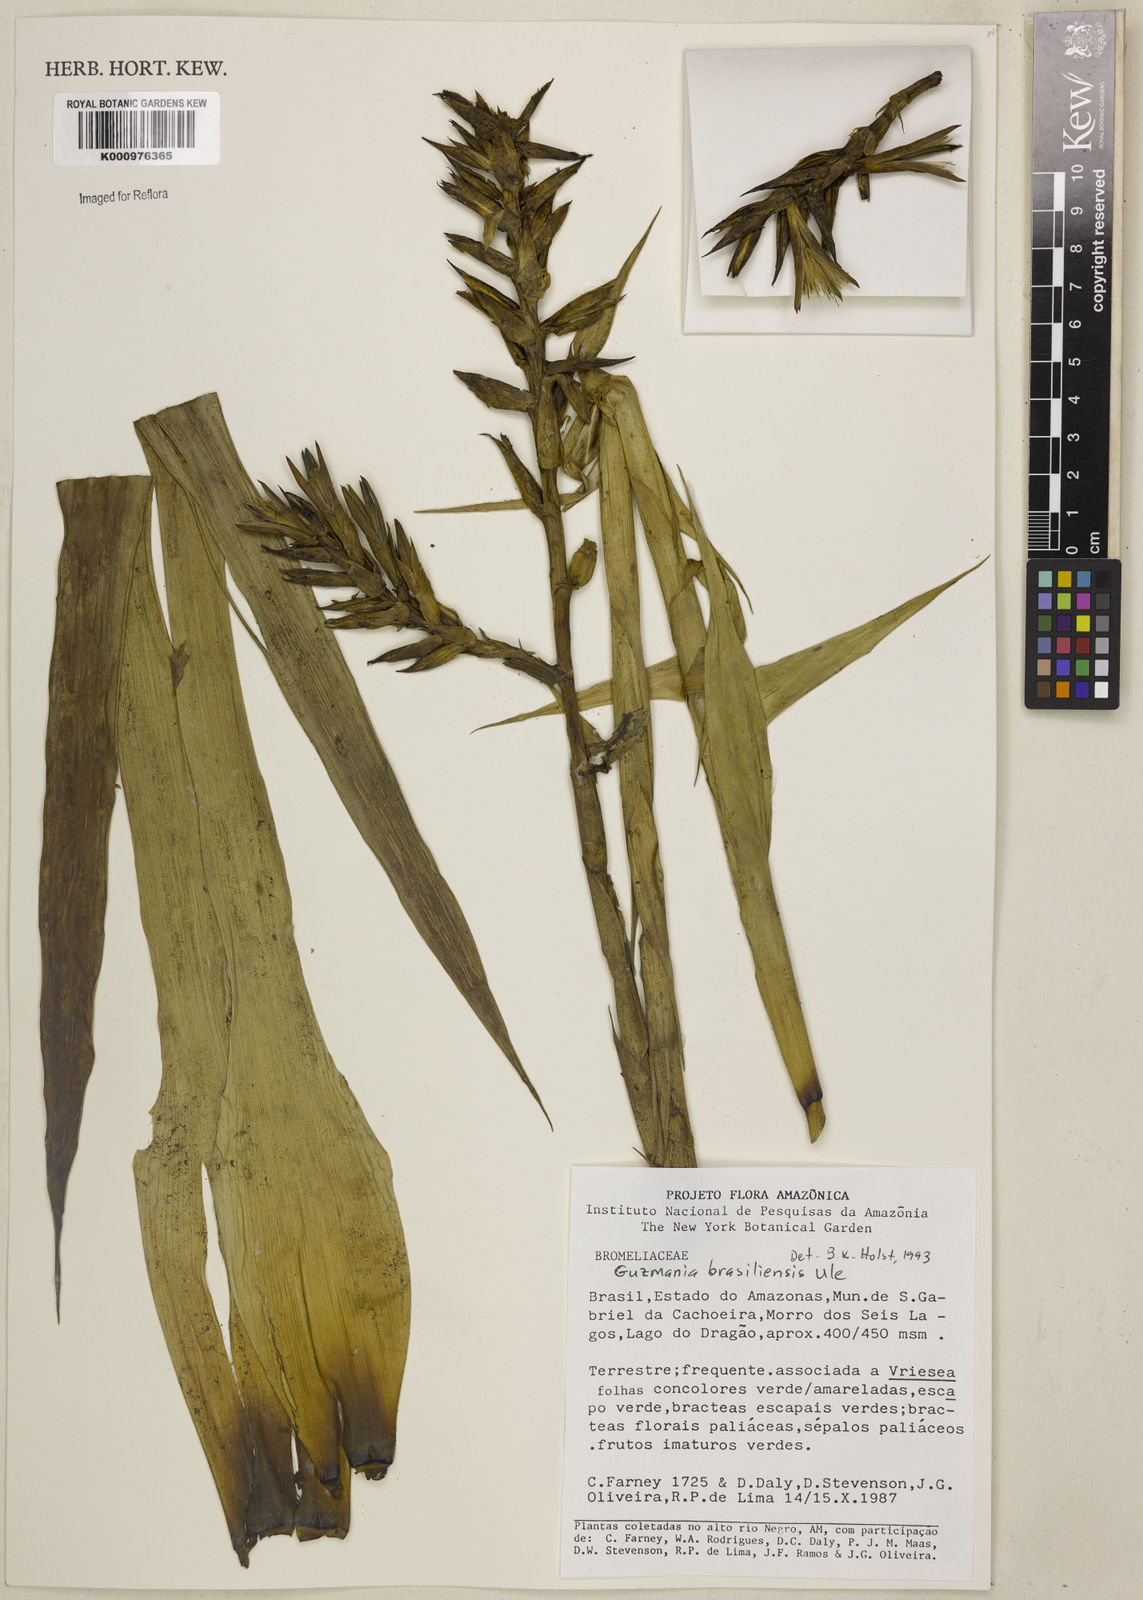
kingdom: Plantae
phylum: Tracheophyta
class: Liliopsida
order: Poales
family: Bromeliaceae
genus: Guzmania
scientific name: Guzmania brasiliensis
